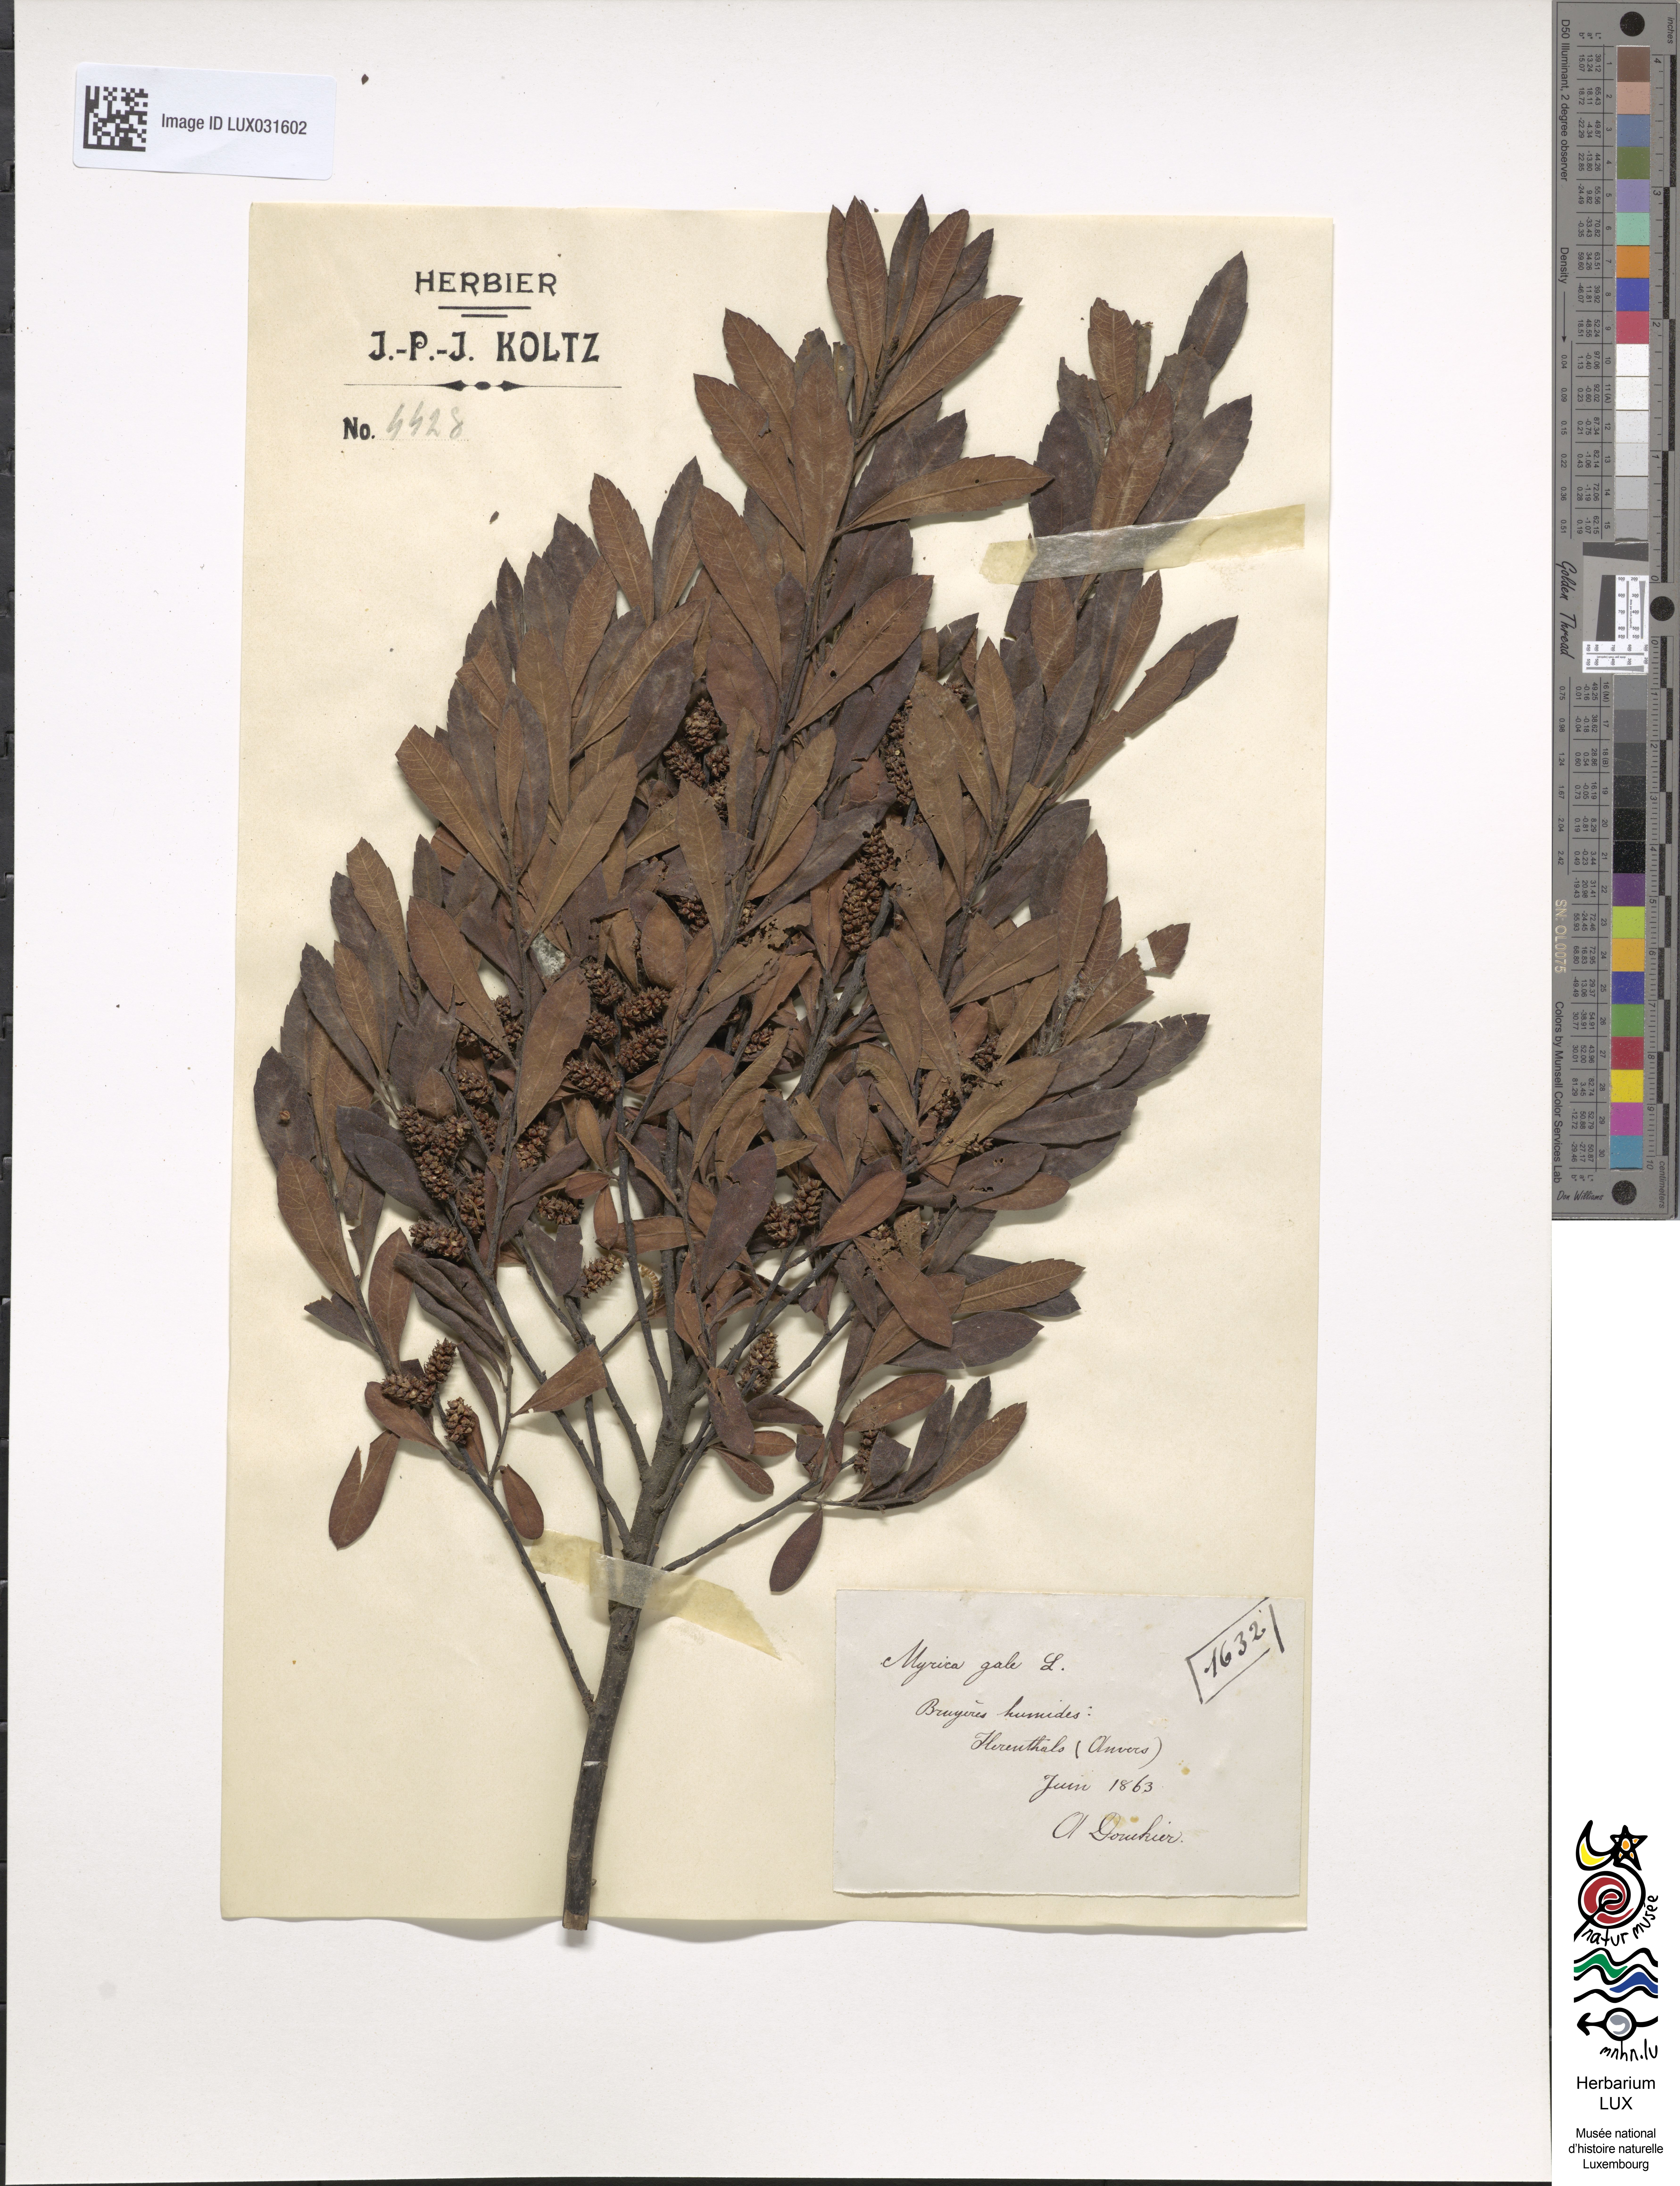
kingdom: Plantae
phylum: Tracheophyta
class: Magnoliopsida
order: Fagales
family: Myricaceae
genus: Myrica
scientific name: Myrica gale
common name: Sweet gale
